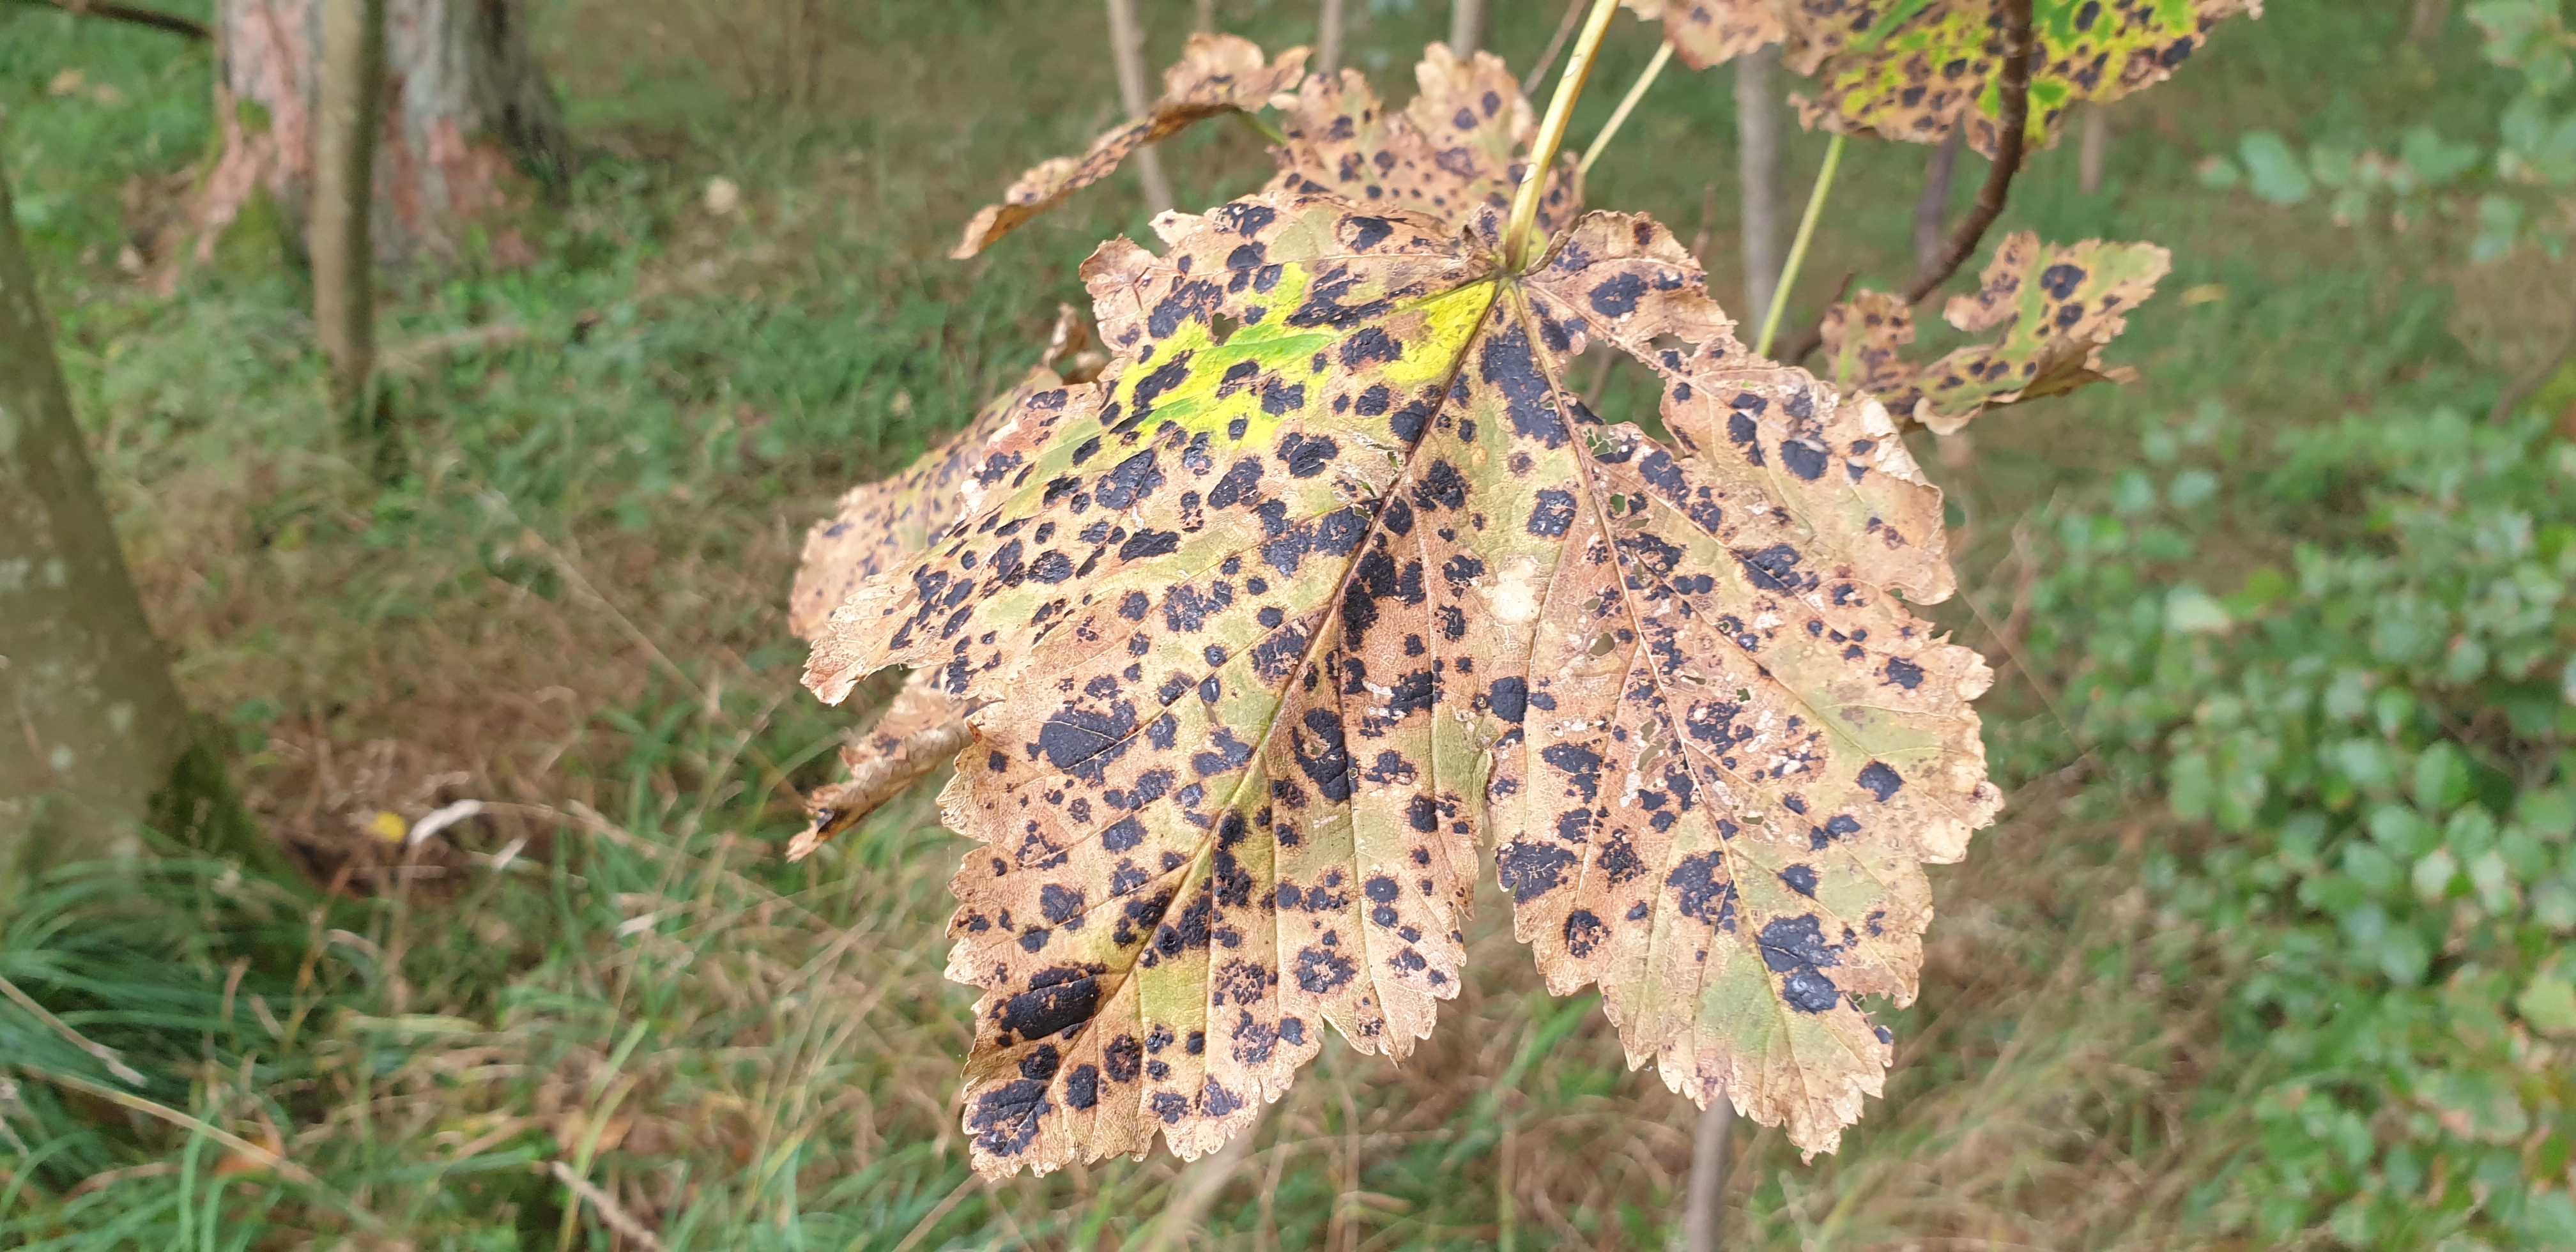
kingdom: Fungi
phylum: Ascomycota
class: Leotiomycetes
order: Rhytismatales
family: Rhytismataceae
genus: Rhytisma
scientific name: Rhytisma acerinum
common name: ahorn-rynkeplet
